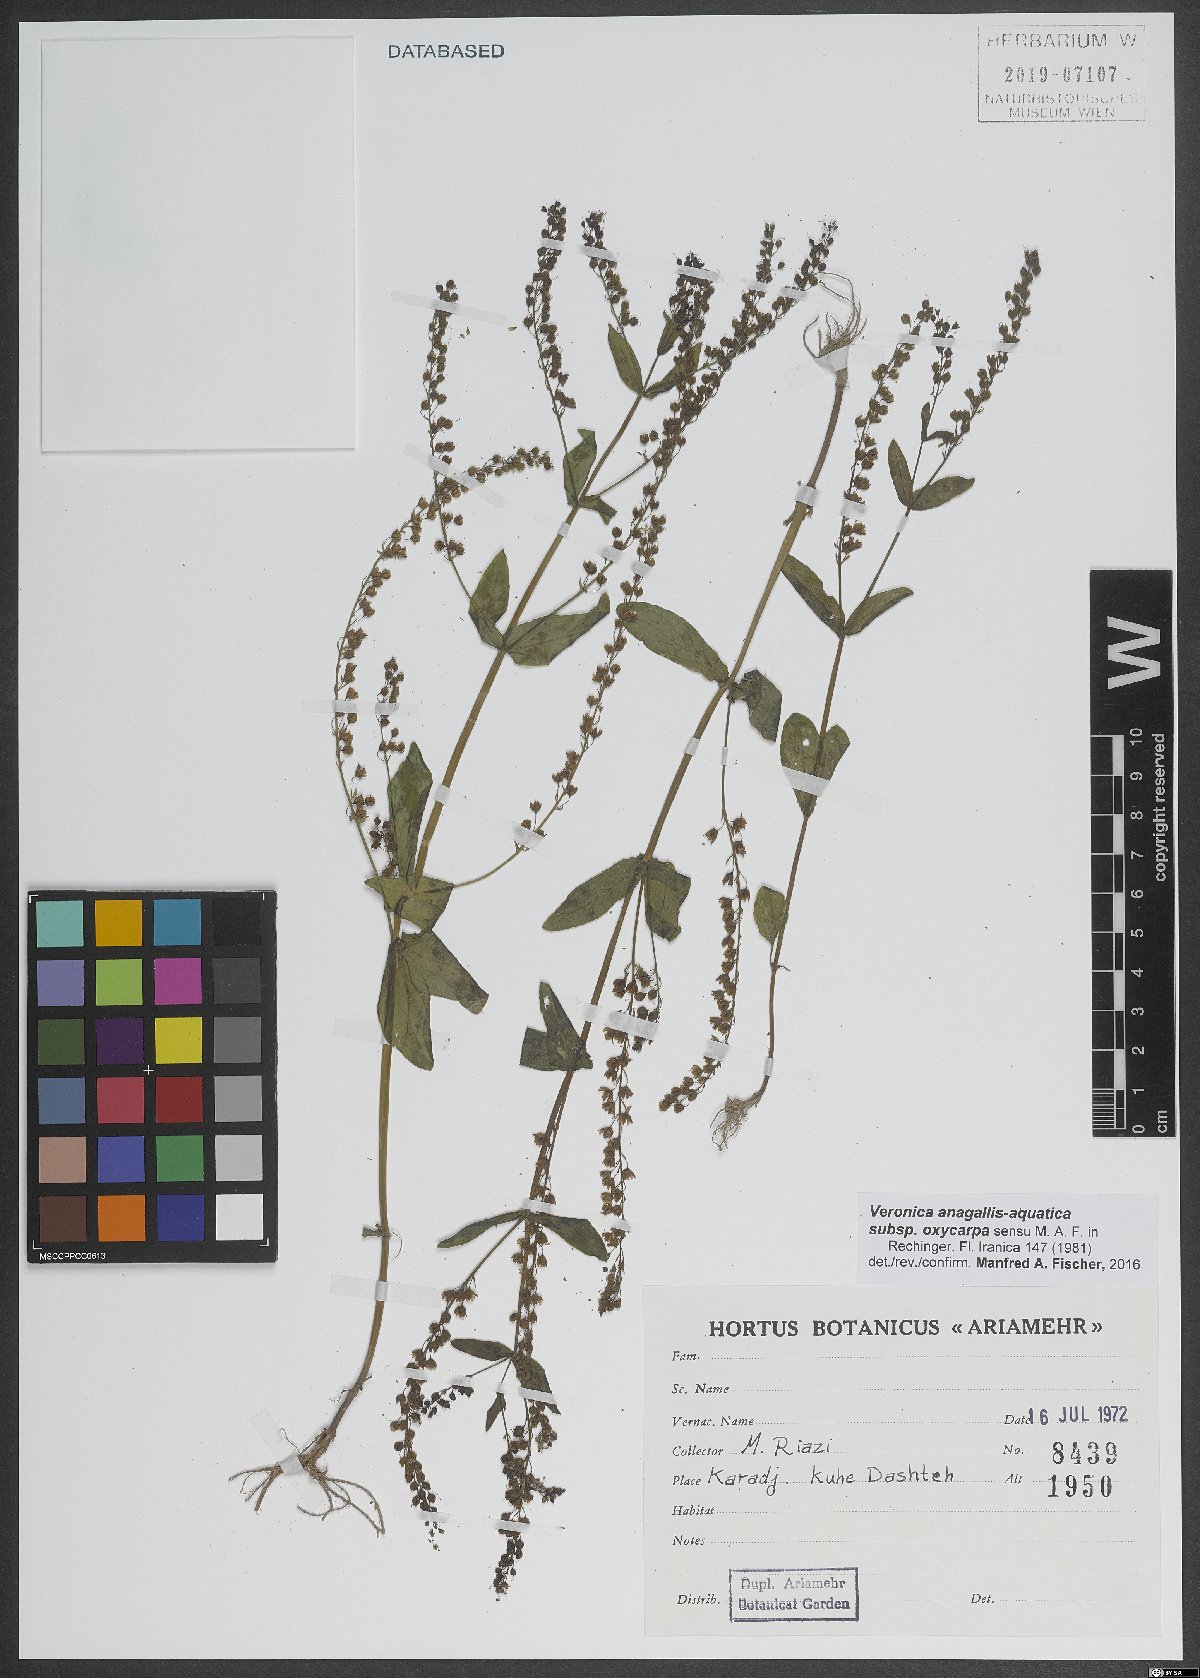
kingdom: Plantae
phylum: Tracheophyta
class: Magnoliopsida
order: Lamiales
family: Plantaginaceae
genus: Veronica
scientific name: Veronica oxycarpa
